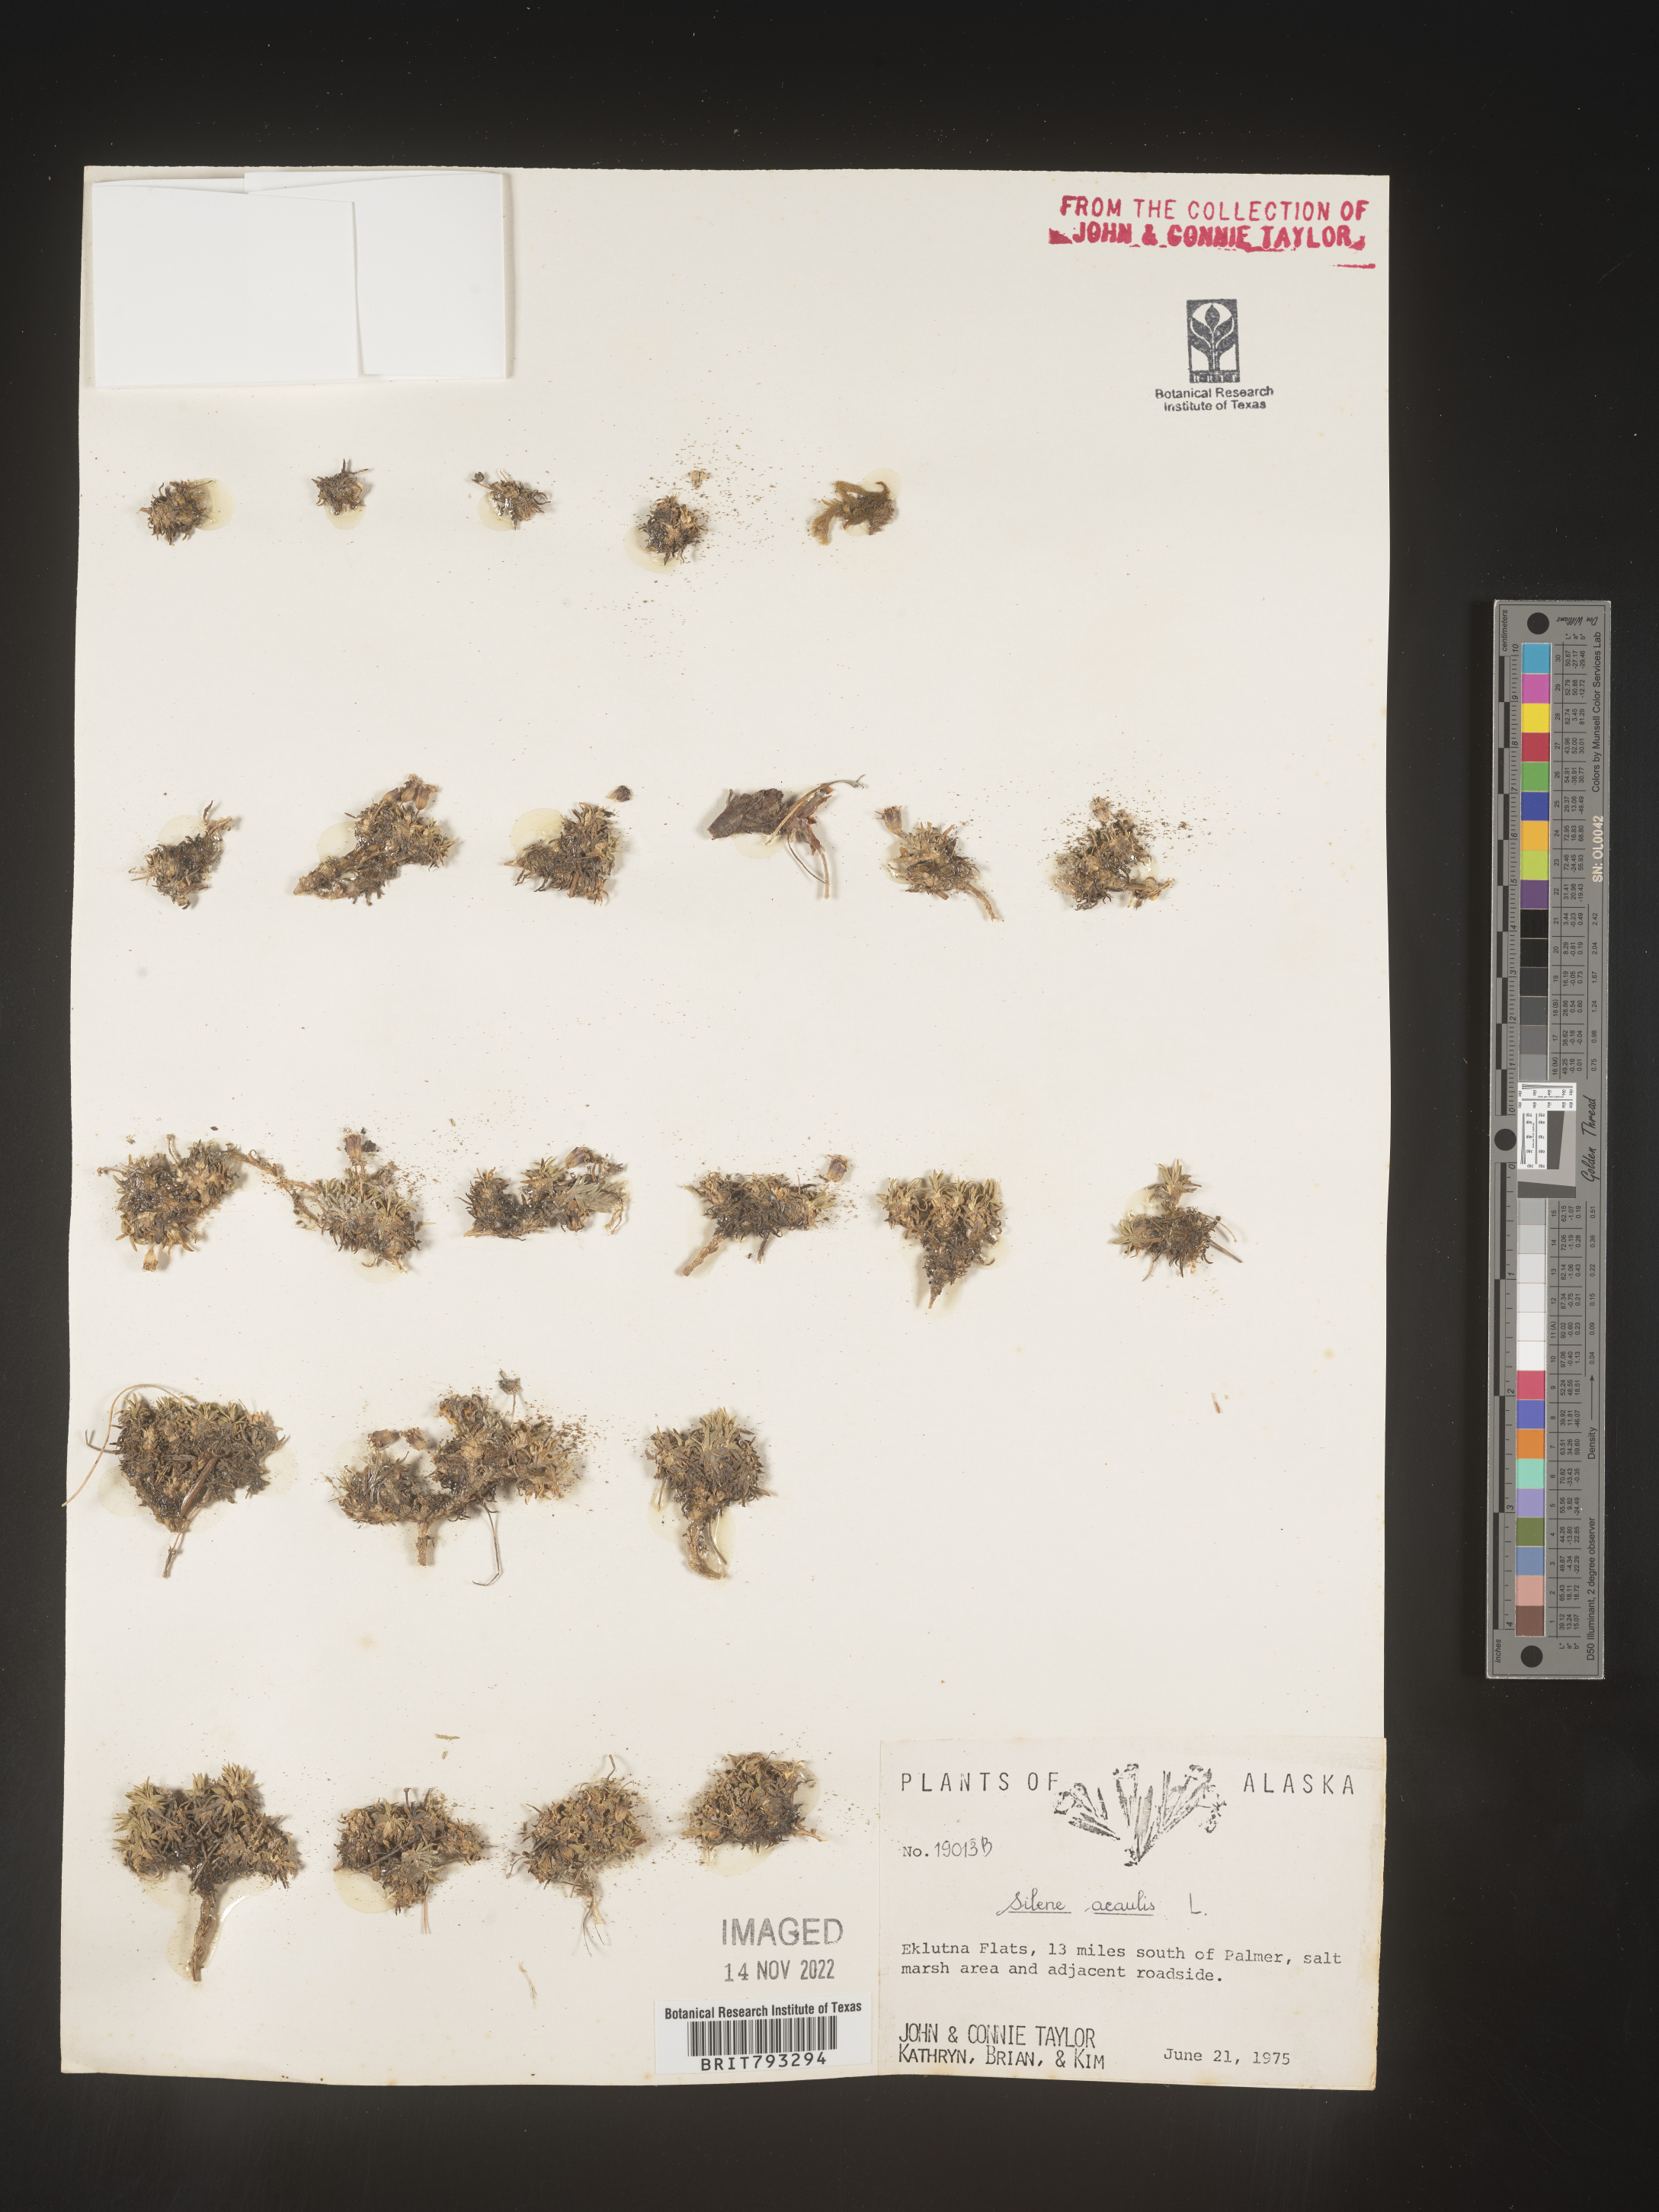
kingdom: Plantae
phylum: Tracheophyta
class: Magnoliopsida
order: Caryophyllales
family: Caryophyllaceae
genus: Silene
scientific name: Silene acaulis
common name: Moss campion
